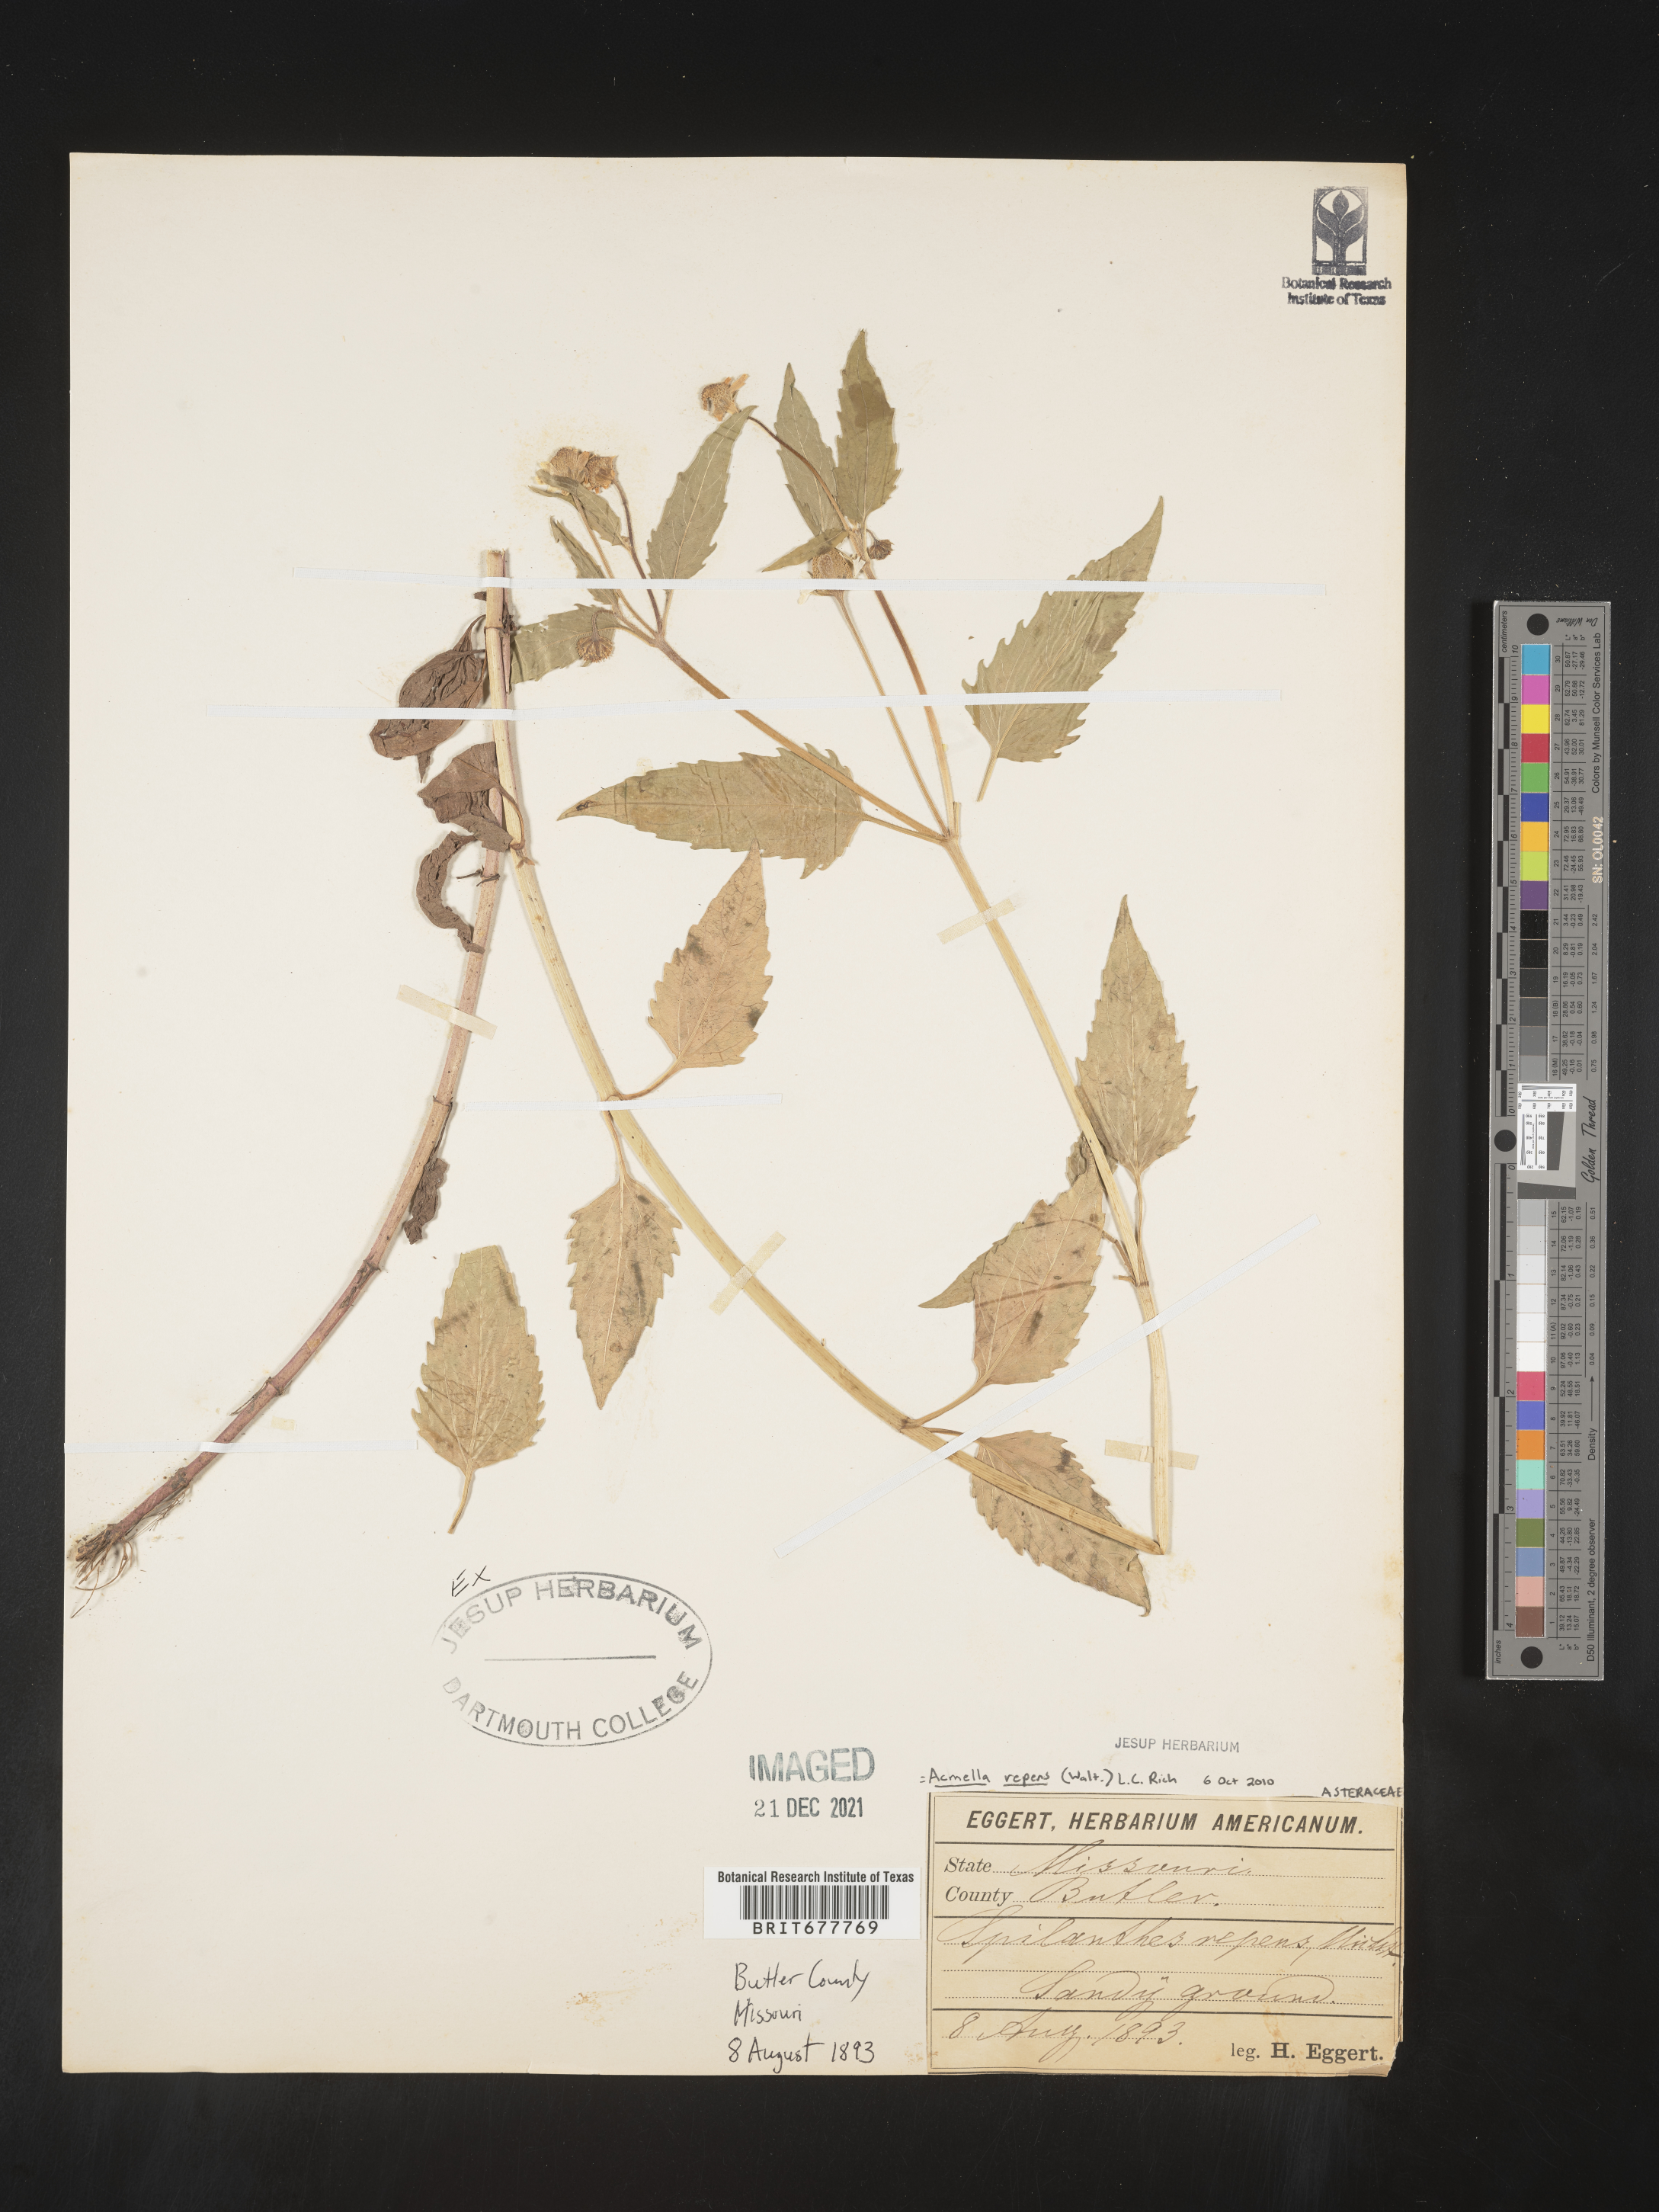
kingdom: Plantae
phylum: Tracheophyta
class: Magnoliopsida
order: Asterales
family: Asteraceae
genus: Spilanthes
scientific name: Spilanthes
